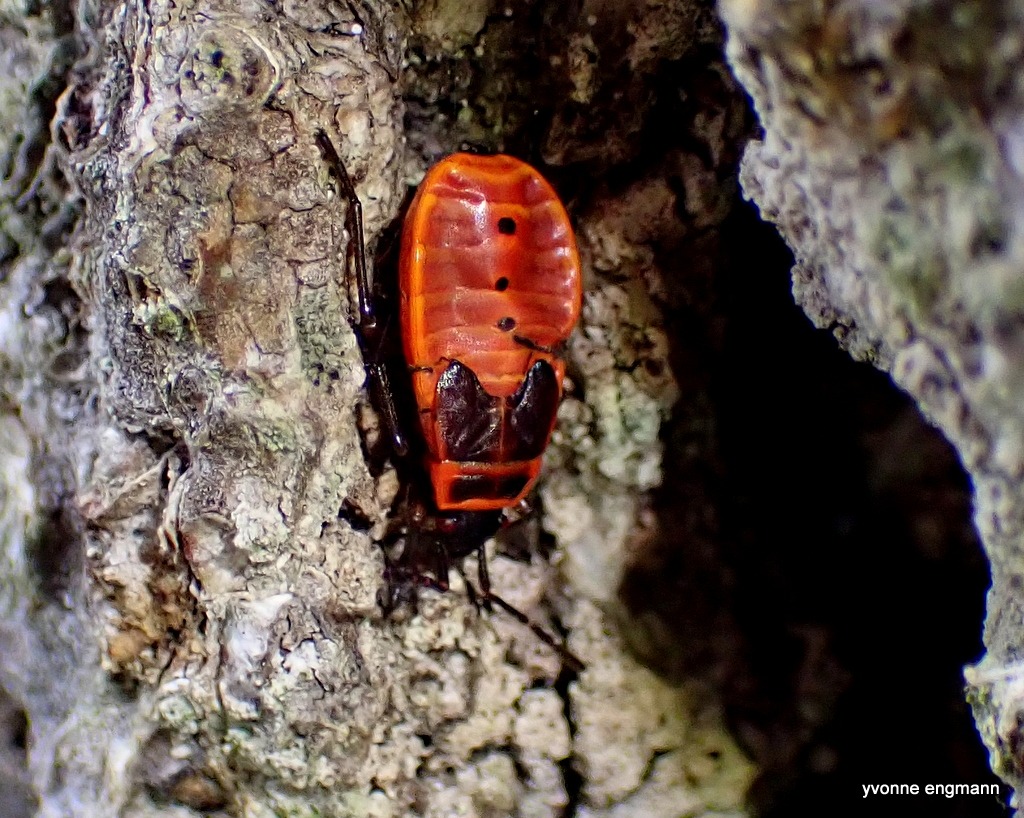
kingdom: Animalia
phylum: Arthropoda
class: Insecta
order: Hemiptera
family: Pyrrhocoridae
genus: Pyrrhocoris
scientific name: Pyrrhocoris apterus
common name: Ildtæge
